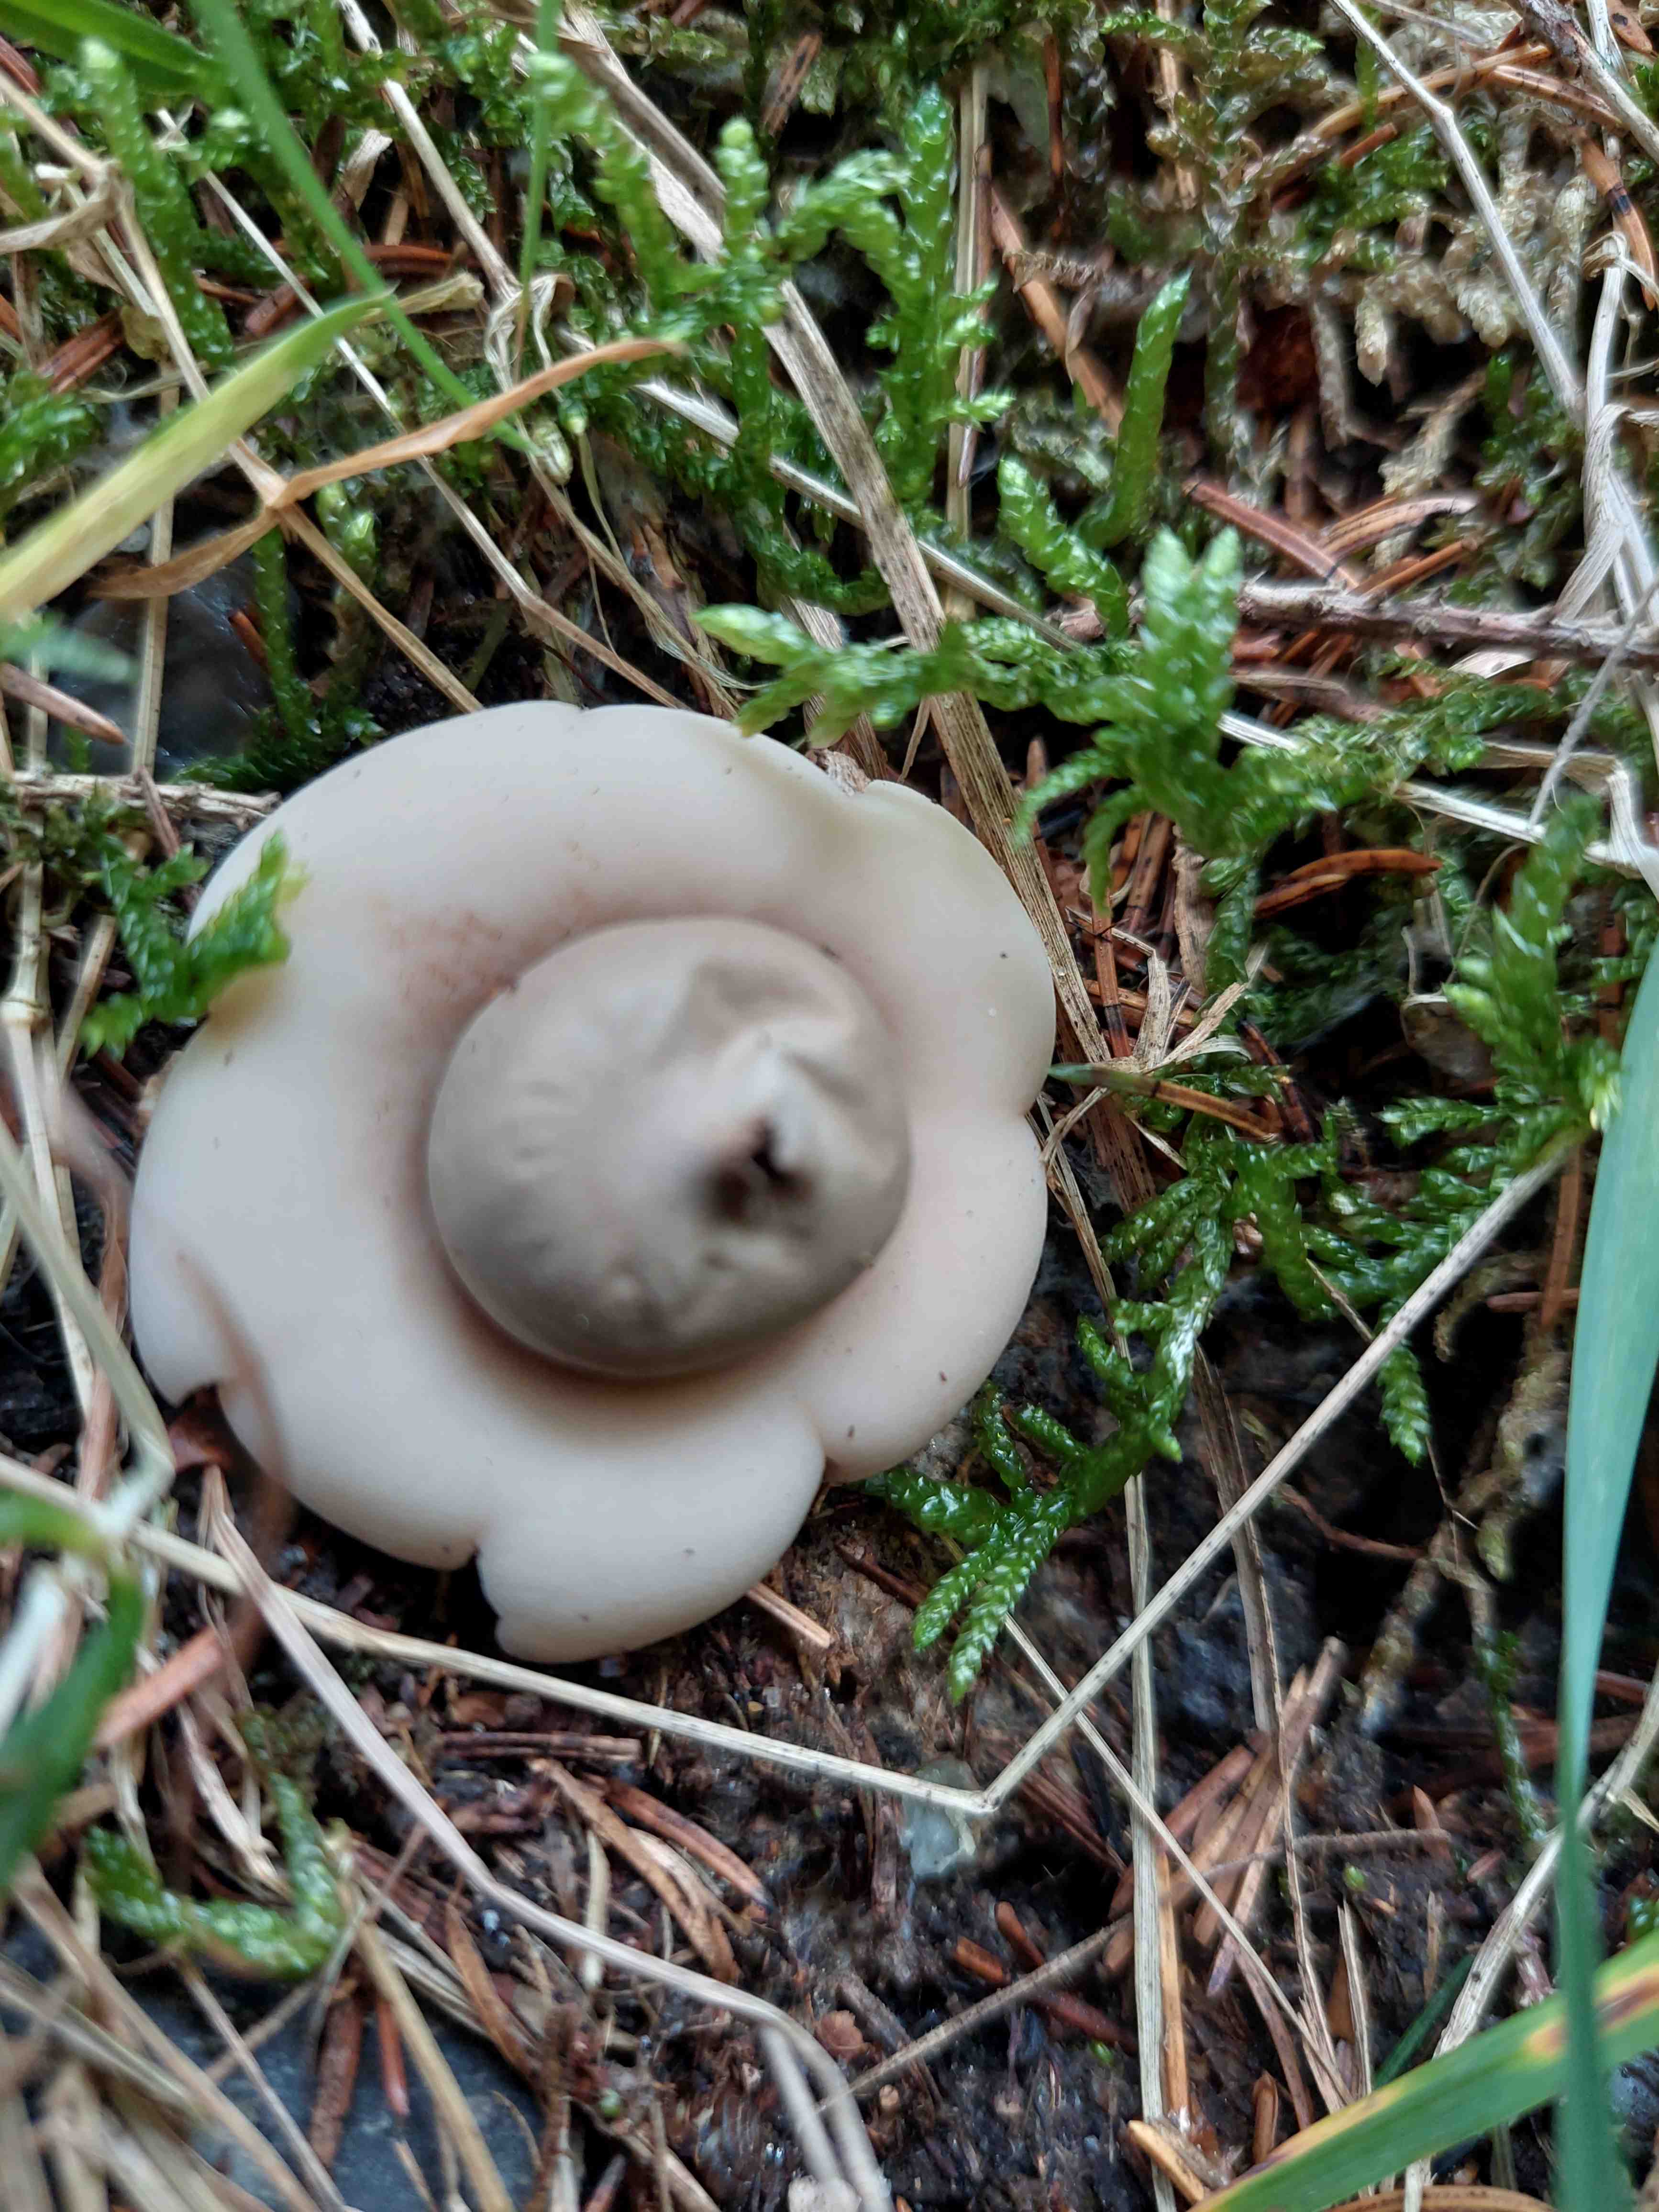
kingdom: Fungi
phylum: Basidiomycota
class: Agaricomycetes
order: Geastrales
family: Geastraceae
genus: Geastrum
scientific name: Geastrum fimbriatum
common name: frynset stjernebold
